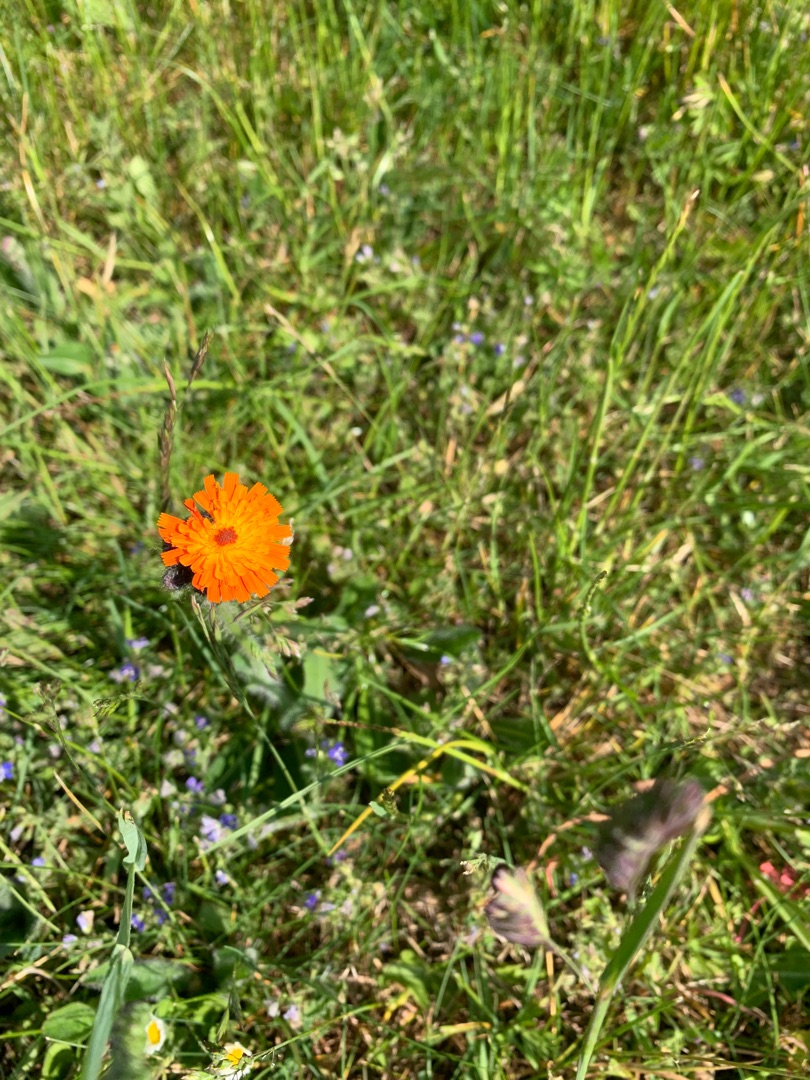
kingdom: Plantae
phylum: Tracheophyta
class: Magnoliopsida
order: Asterales
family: Asteraceae
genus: Pilosella
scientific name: Pilosella aurantiaca
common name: Pomerans-høgeurt
